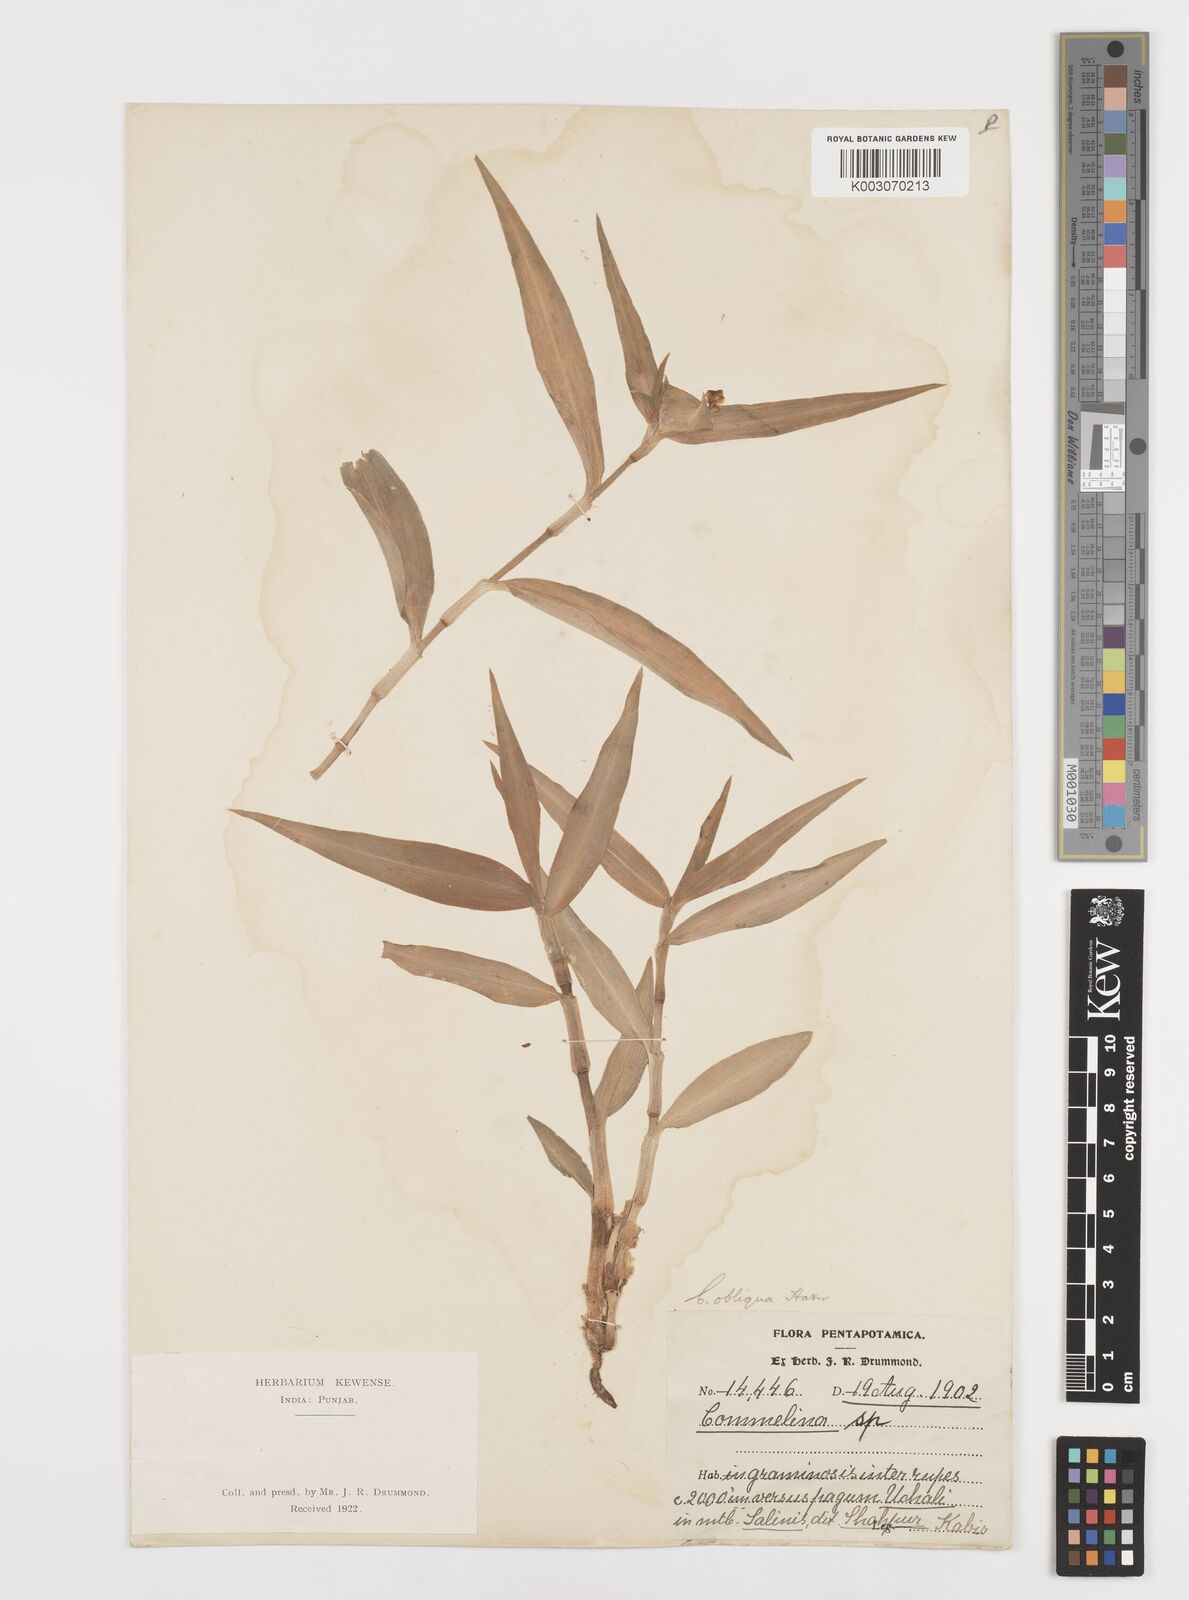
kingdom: Plantae
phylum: Tracheophyta
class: Liliopsida
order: Commelinales
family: Commelinaceae
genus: Commelina
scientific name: Commelina paludosa
